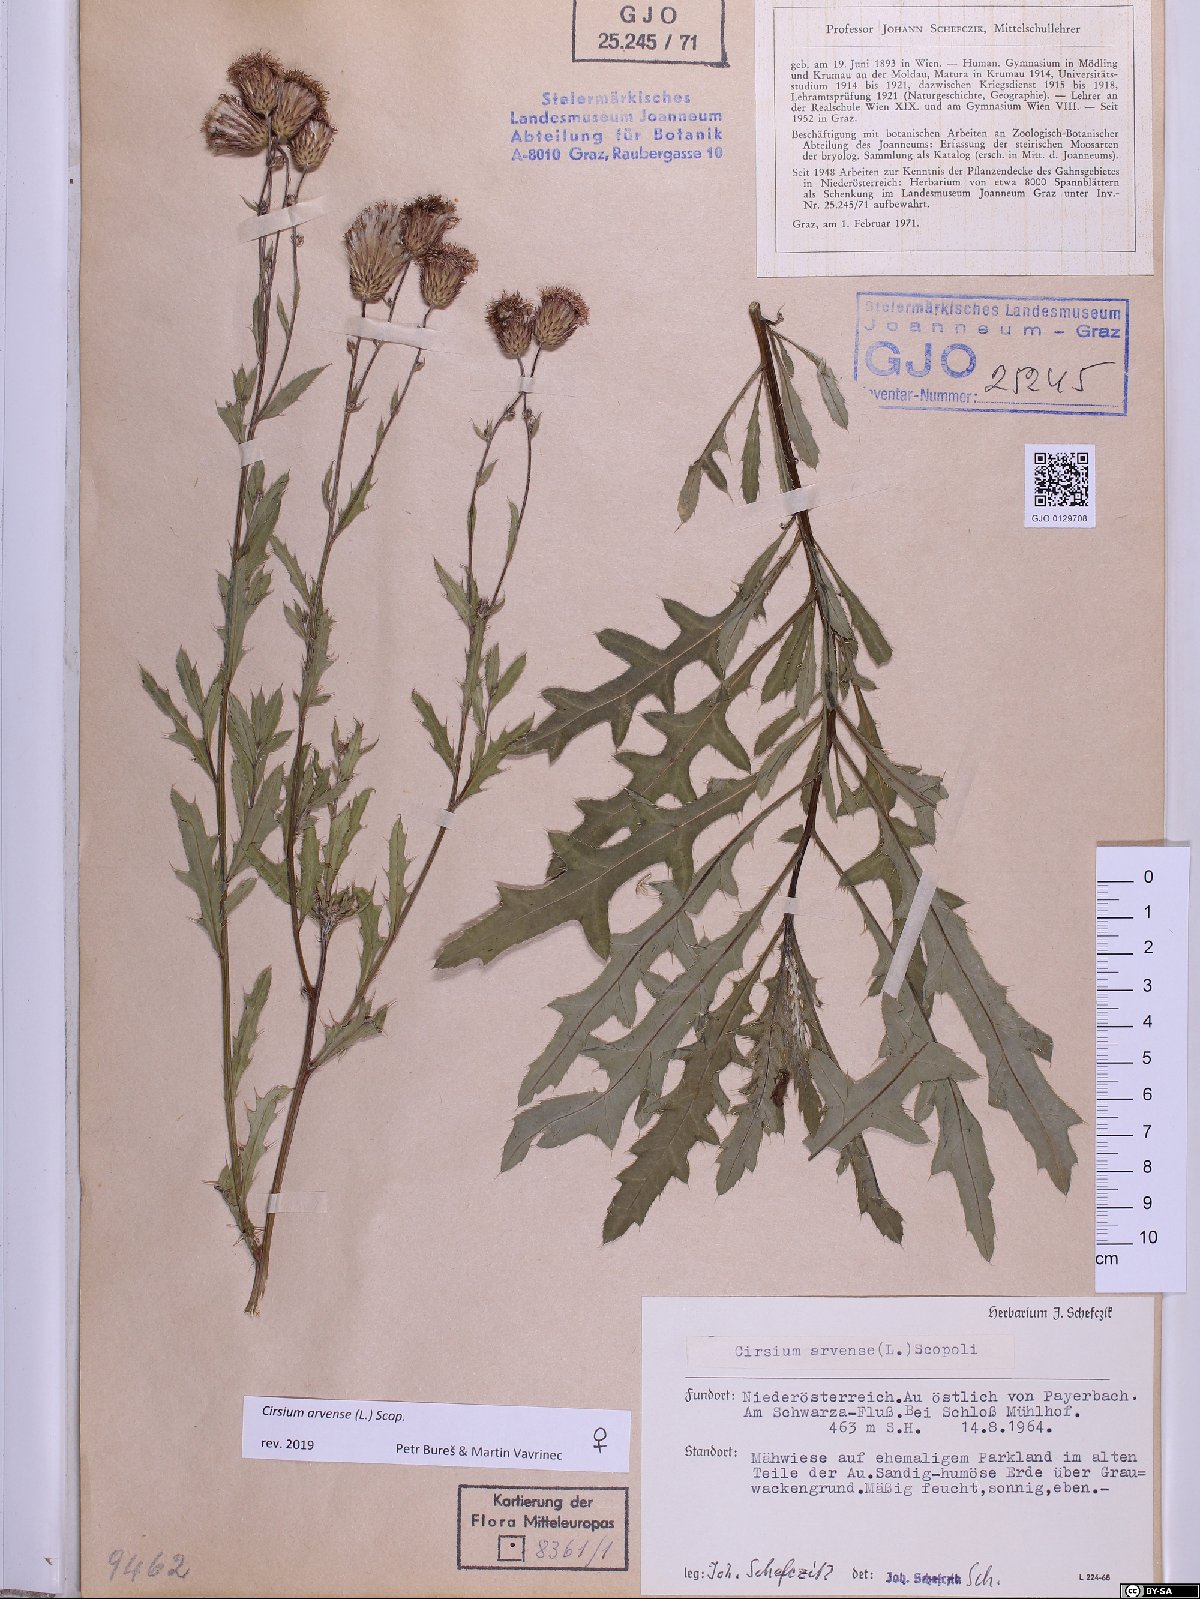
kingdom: Plantae
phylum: Tracheophyta
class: Magnoliopsida
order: Asterales
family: Asteraceae
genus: Cirsium
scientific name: Cirsium arvense
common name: Creeping thistle
